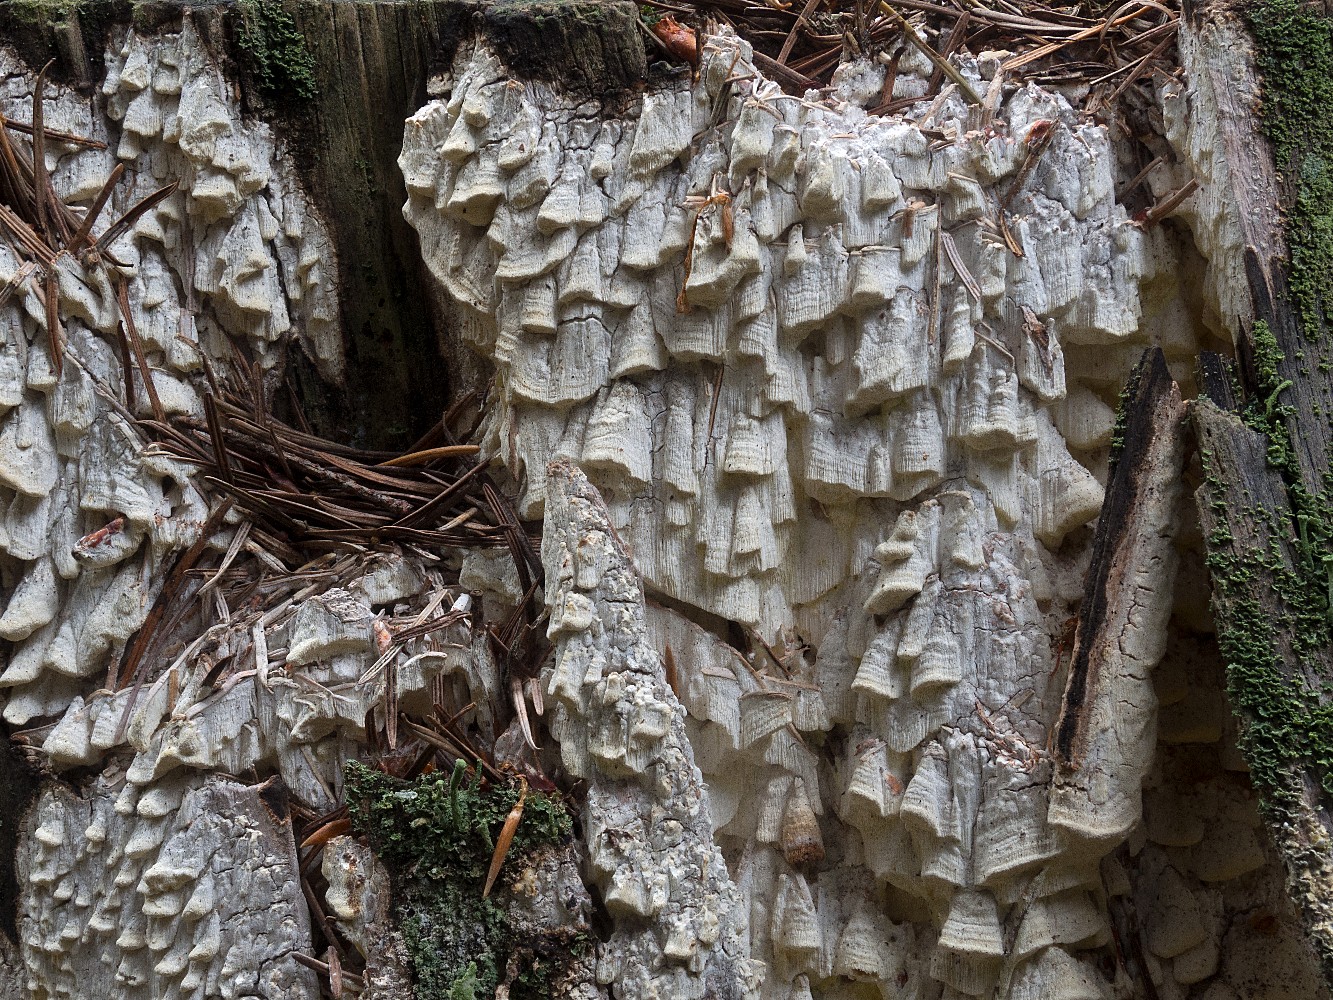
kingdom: Fungi
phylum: Basidiomycota
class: Agaricomycetes
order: Polyporales
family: Fomitopsidaceae
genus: Daedalea
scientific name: Daedalea xantha
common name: gul sejporesvamp
